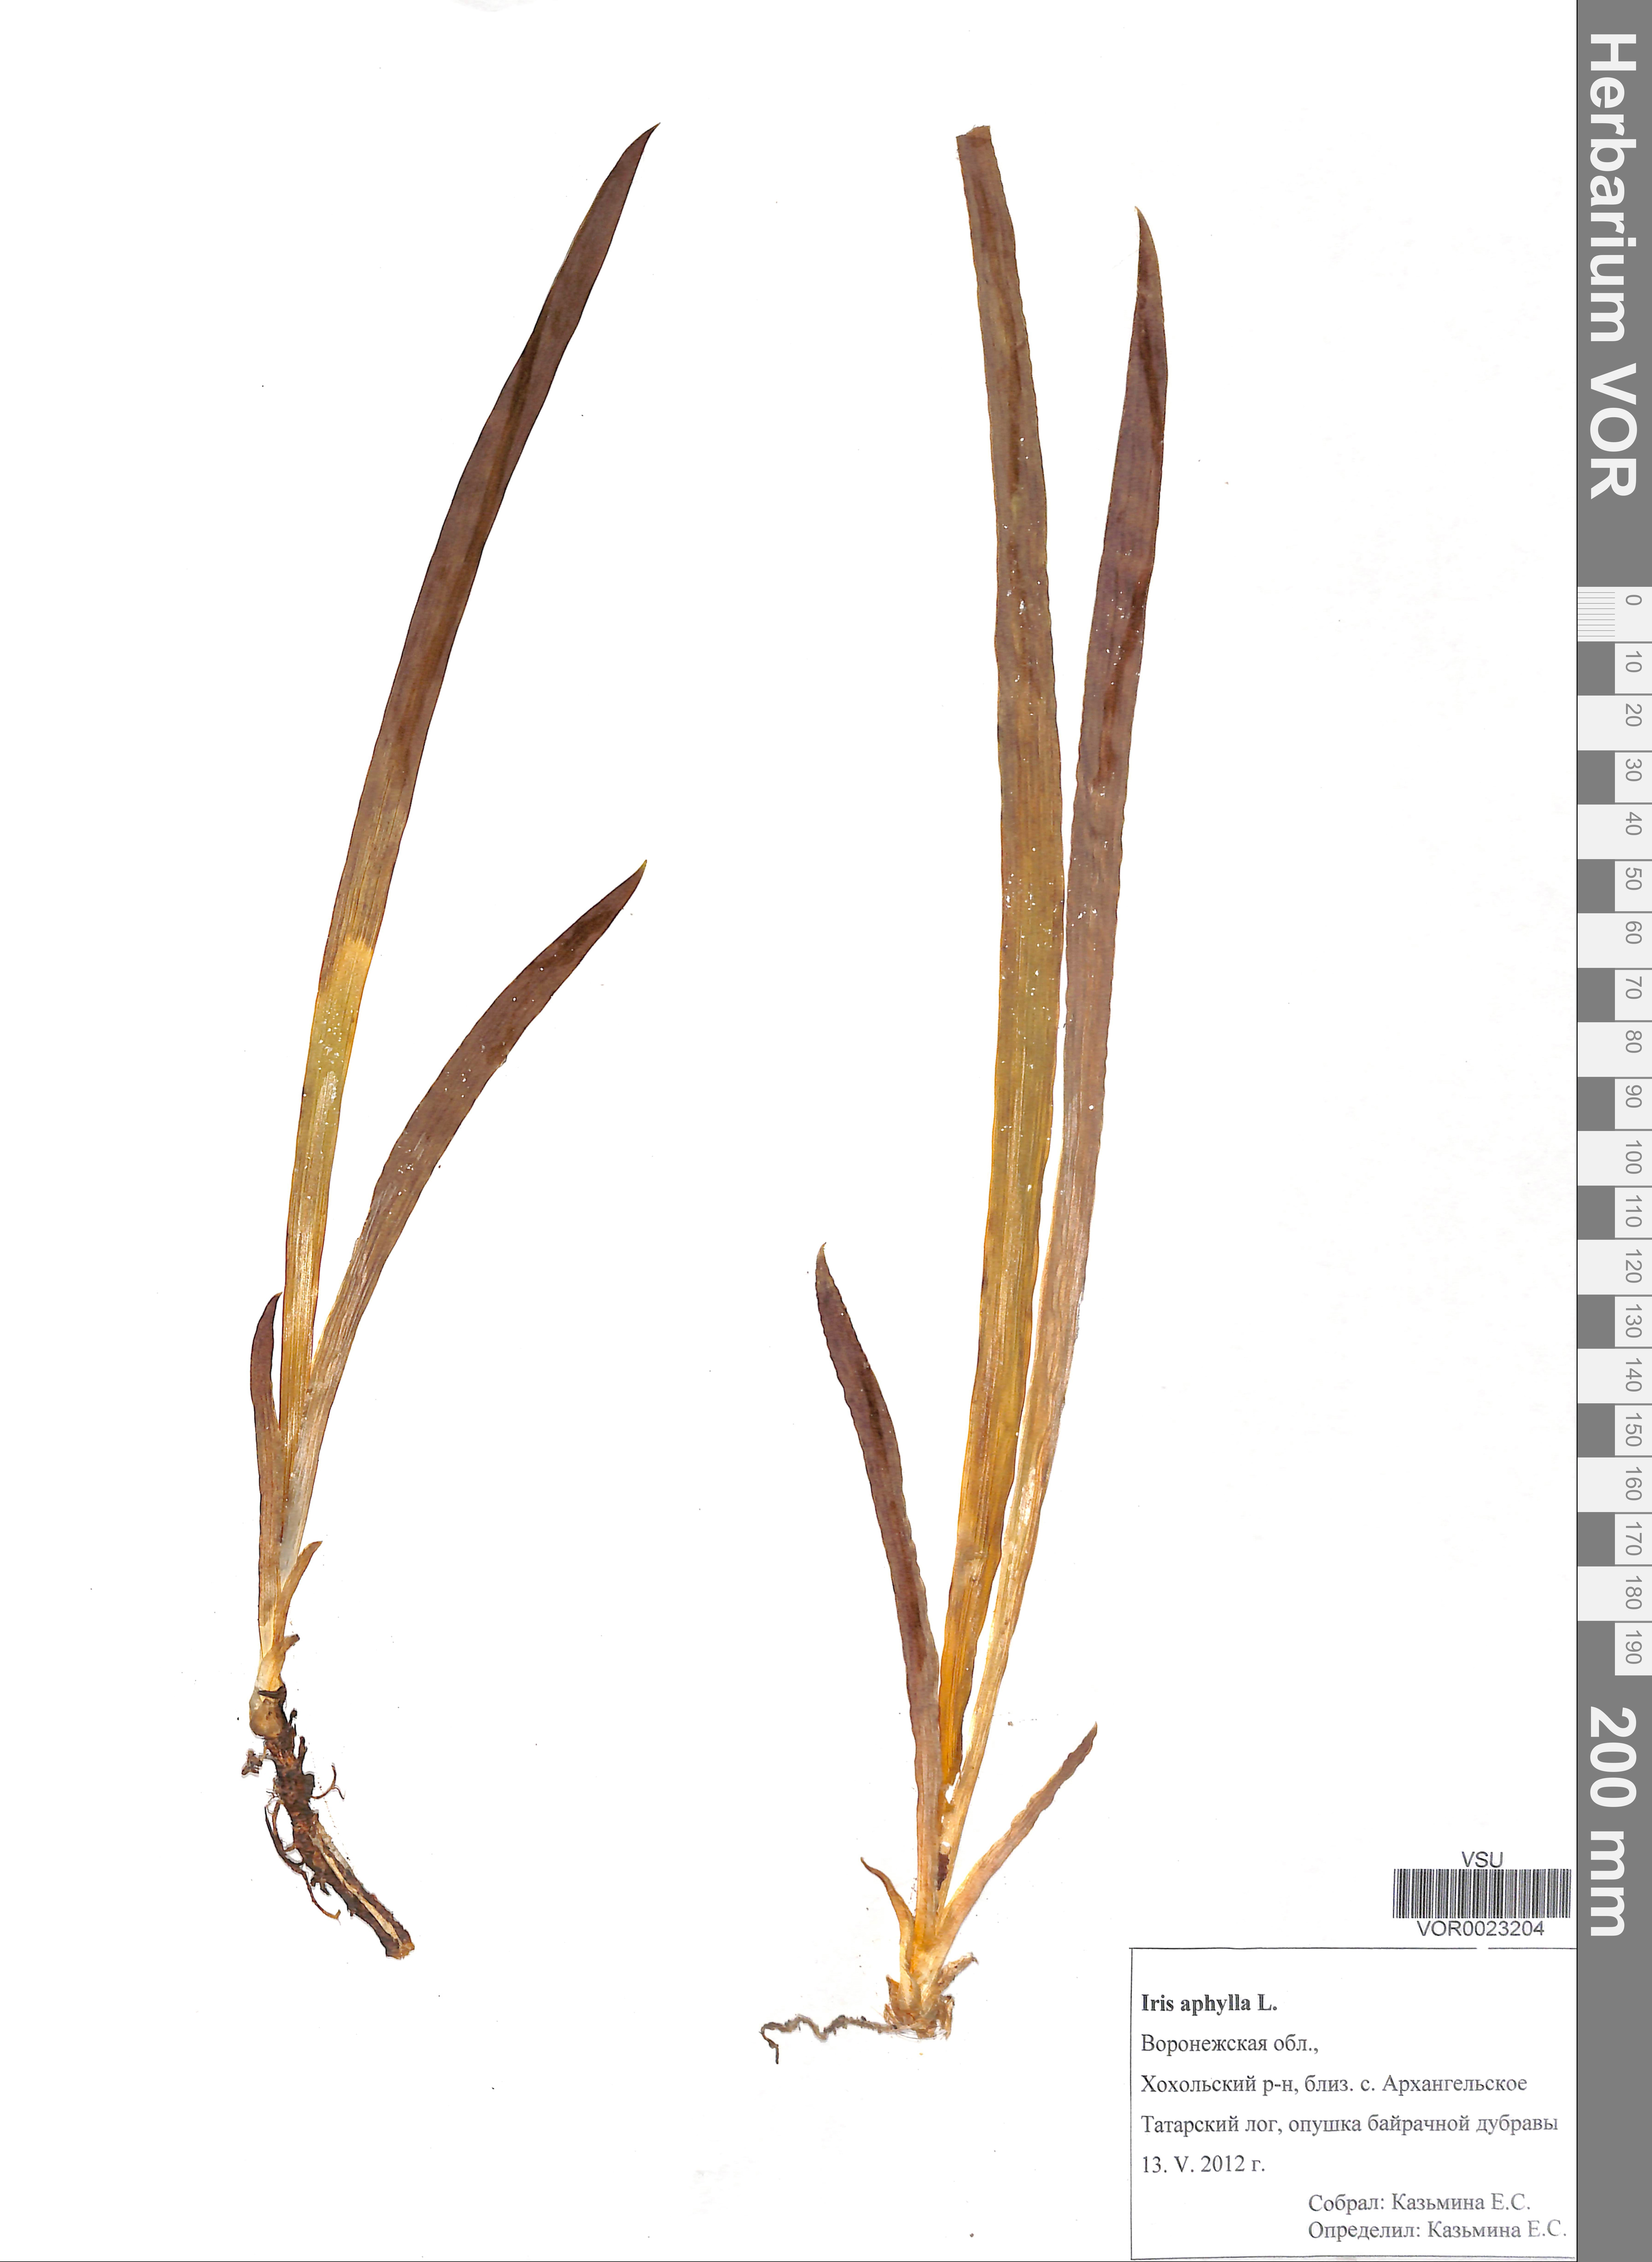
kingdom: Plantae
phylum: Tracheophyta
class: Liliopsida
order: Asparagales
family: Iridaceae
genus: Iris
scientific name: Iris aphylla
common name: Stool iris
